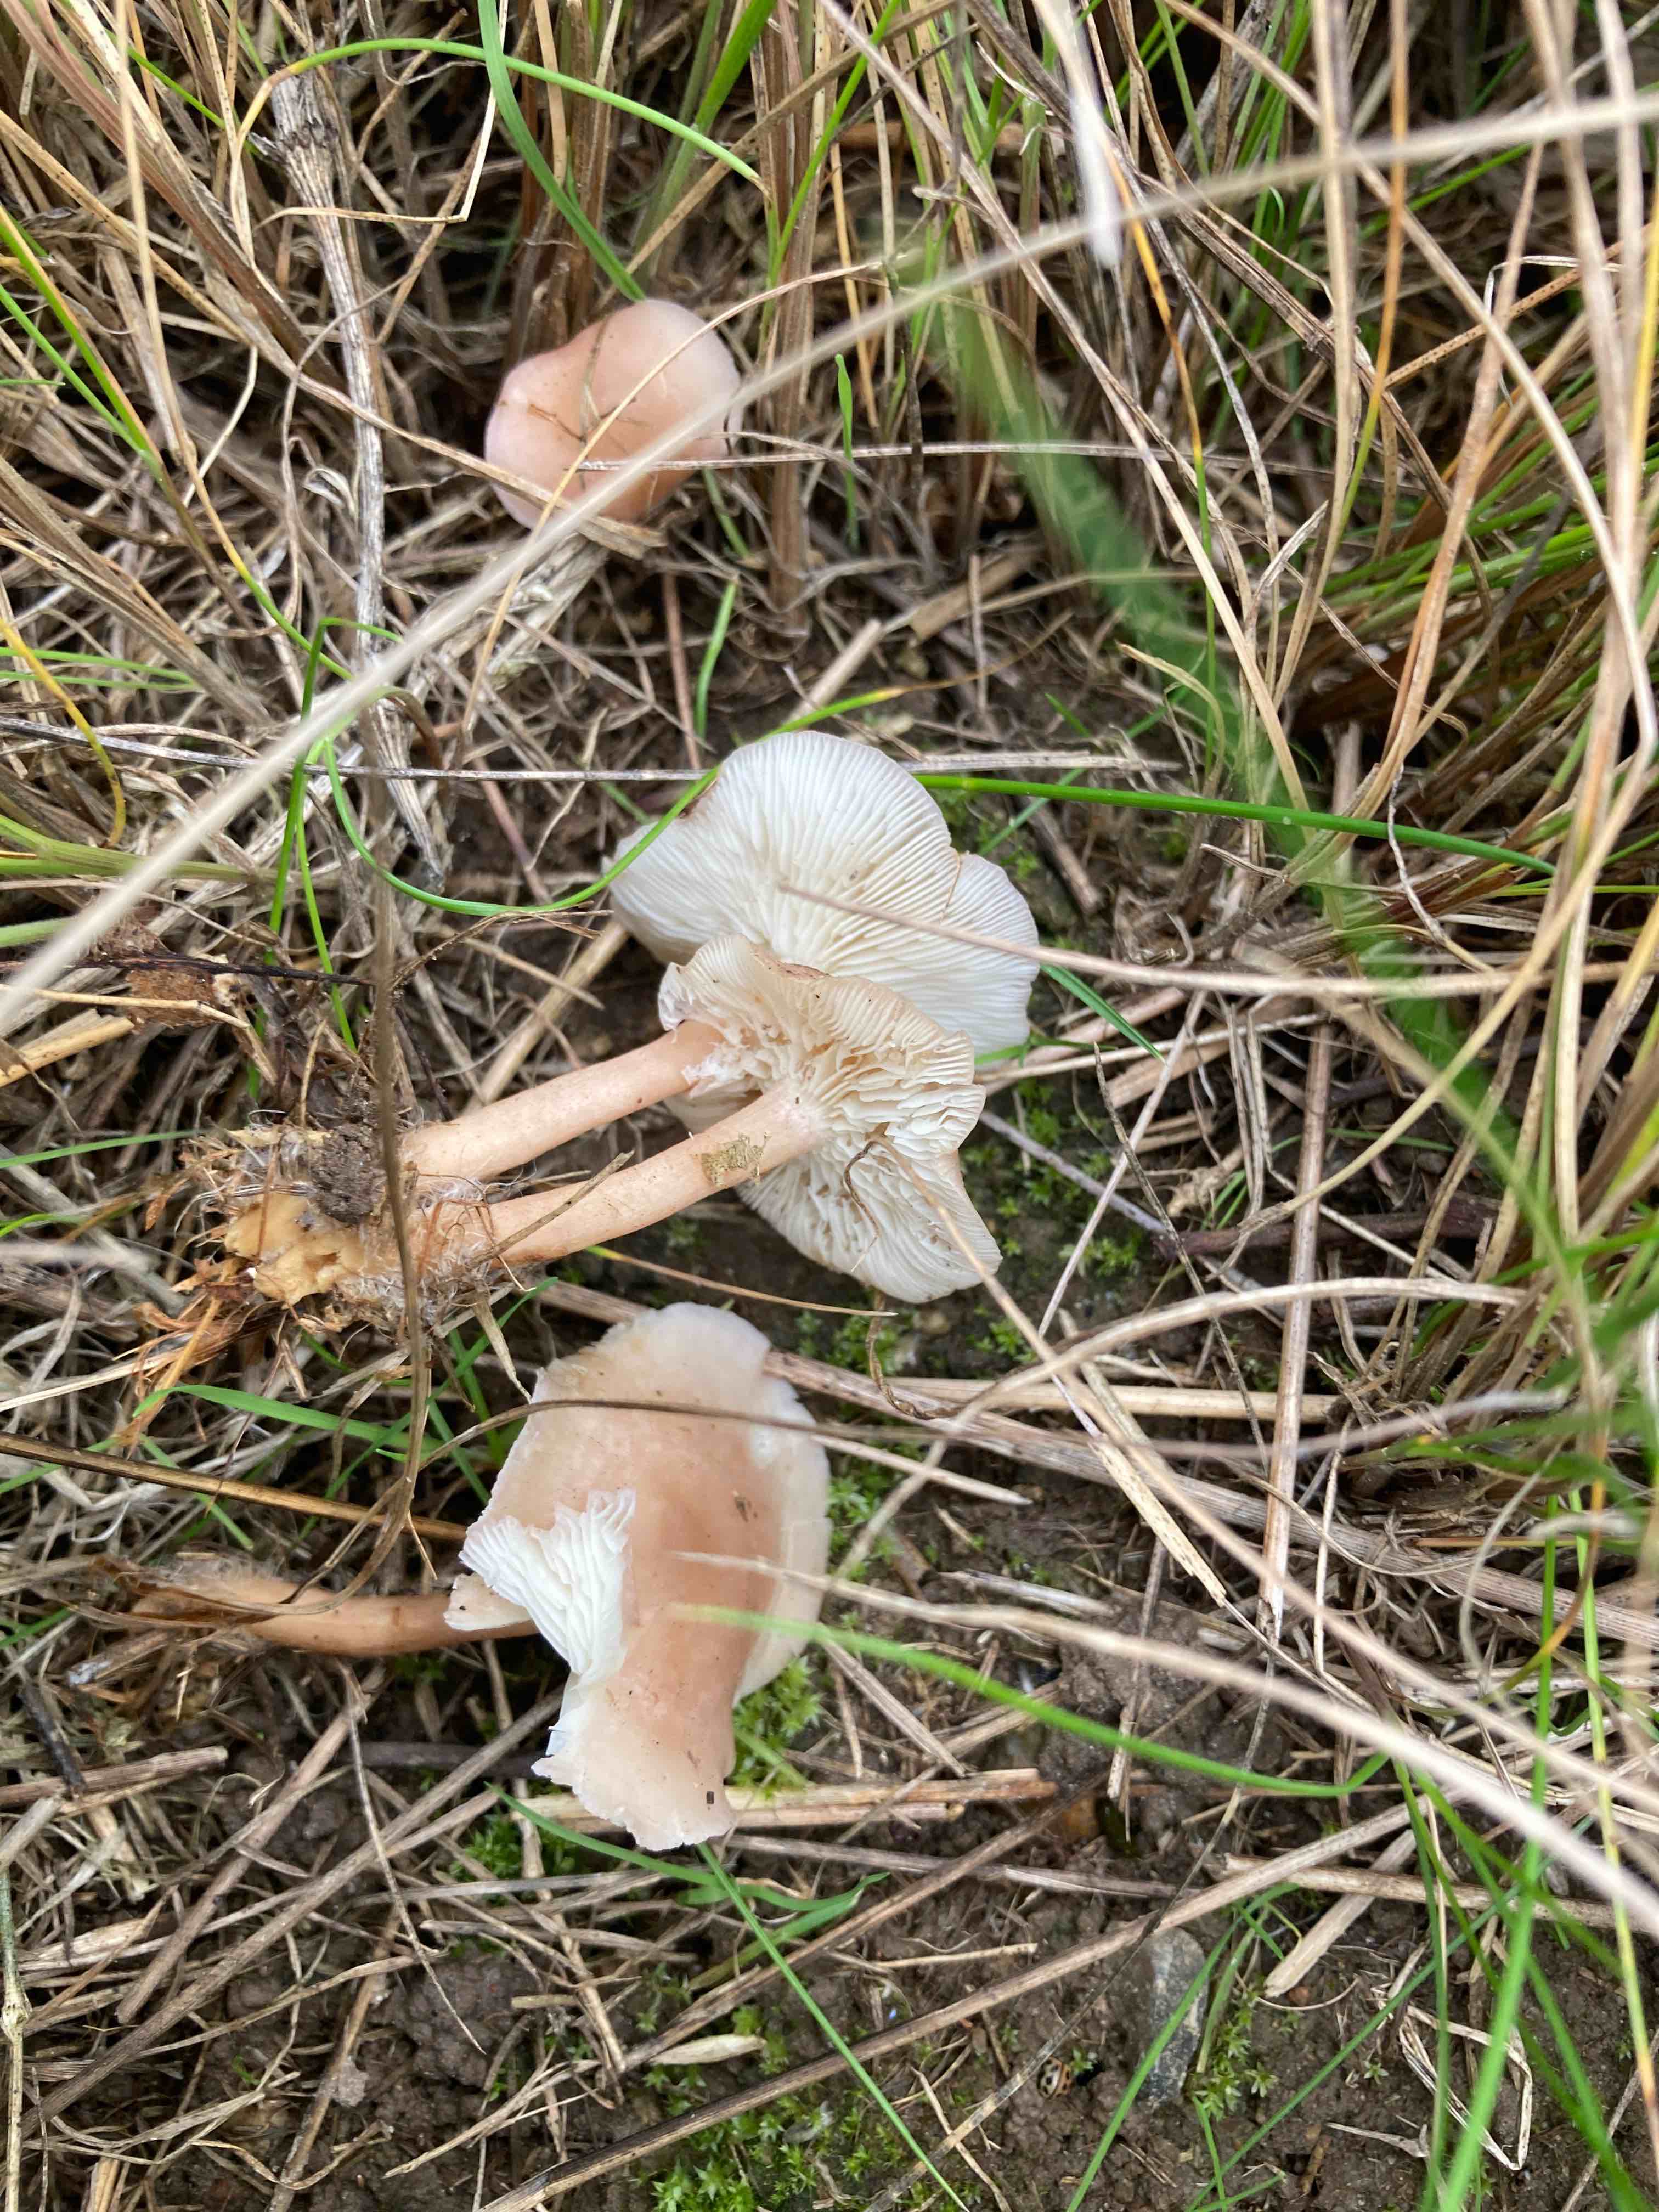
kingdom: Fungi
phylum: Basidiomycota
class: Agaricomycetes
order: Agaricales
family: Lyophyllaceae
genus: Calocybe
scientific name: Calocybe carnea
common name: rosa fagerhat
